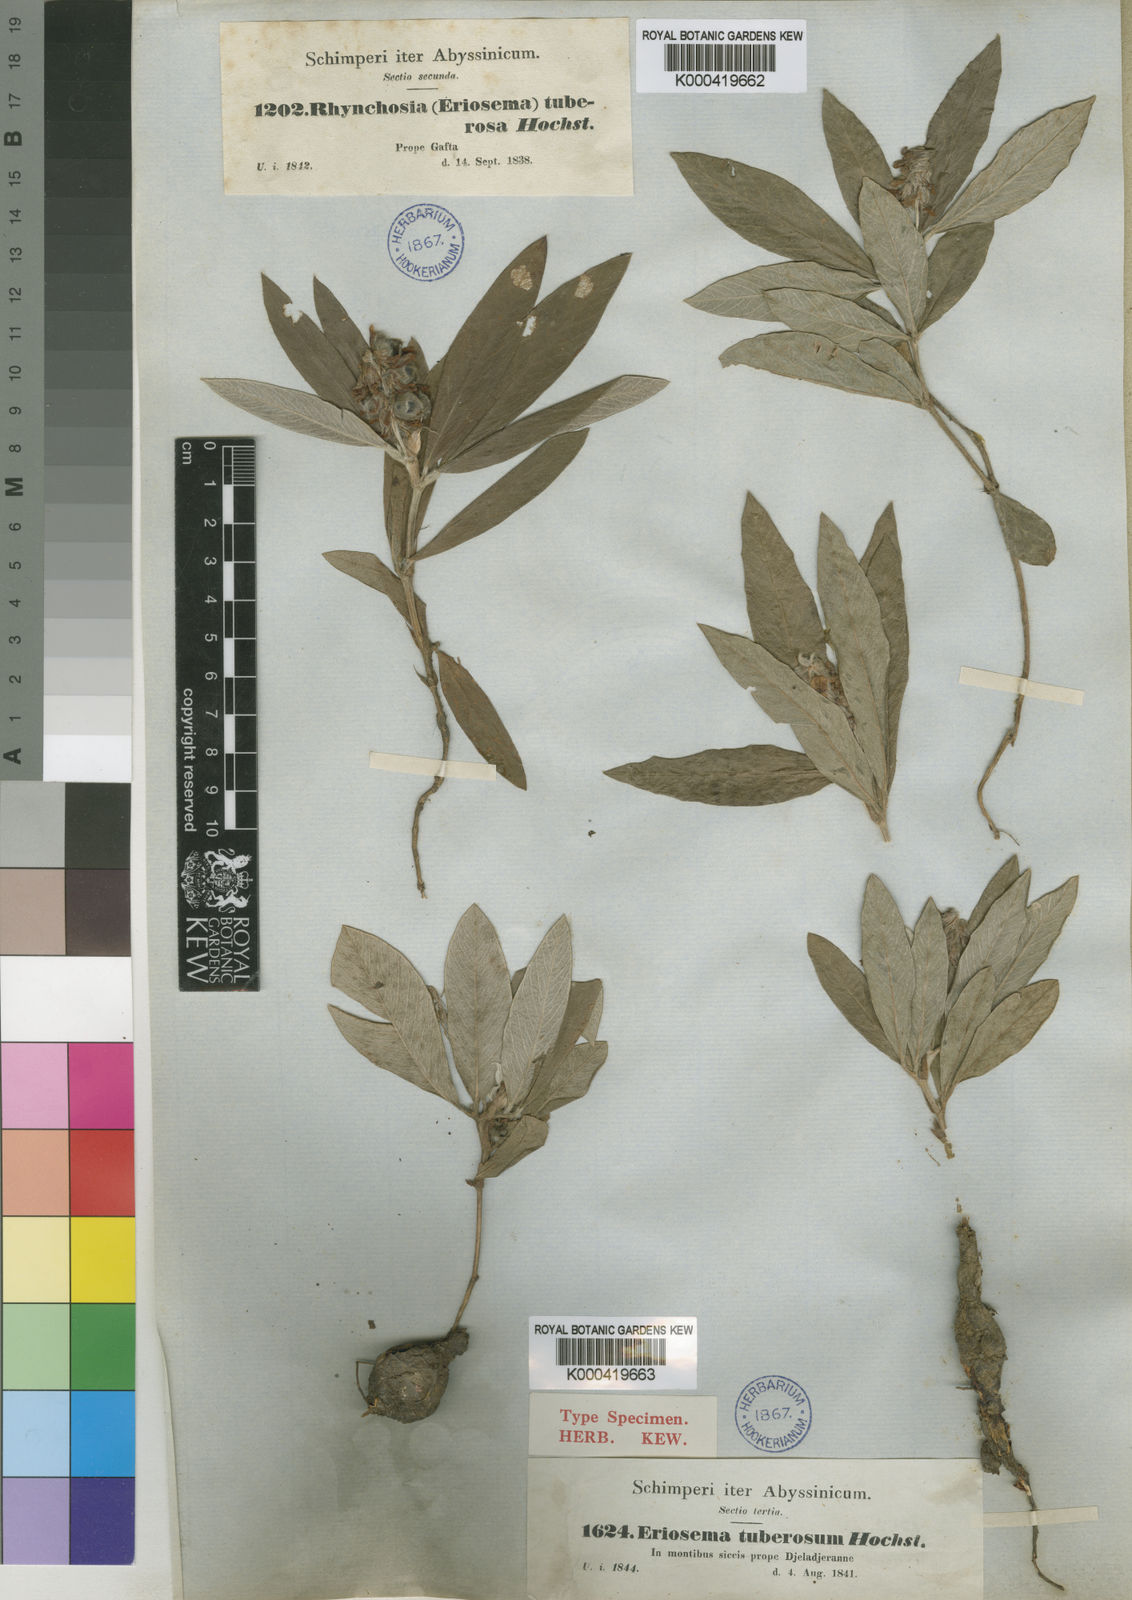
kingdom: Plantae
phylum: Tracheophyta
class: Magnoliopsida
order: Fabales
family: Fabaceae
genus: Eriosema
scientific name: Eriosema
